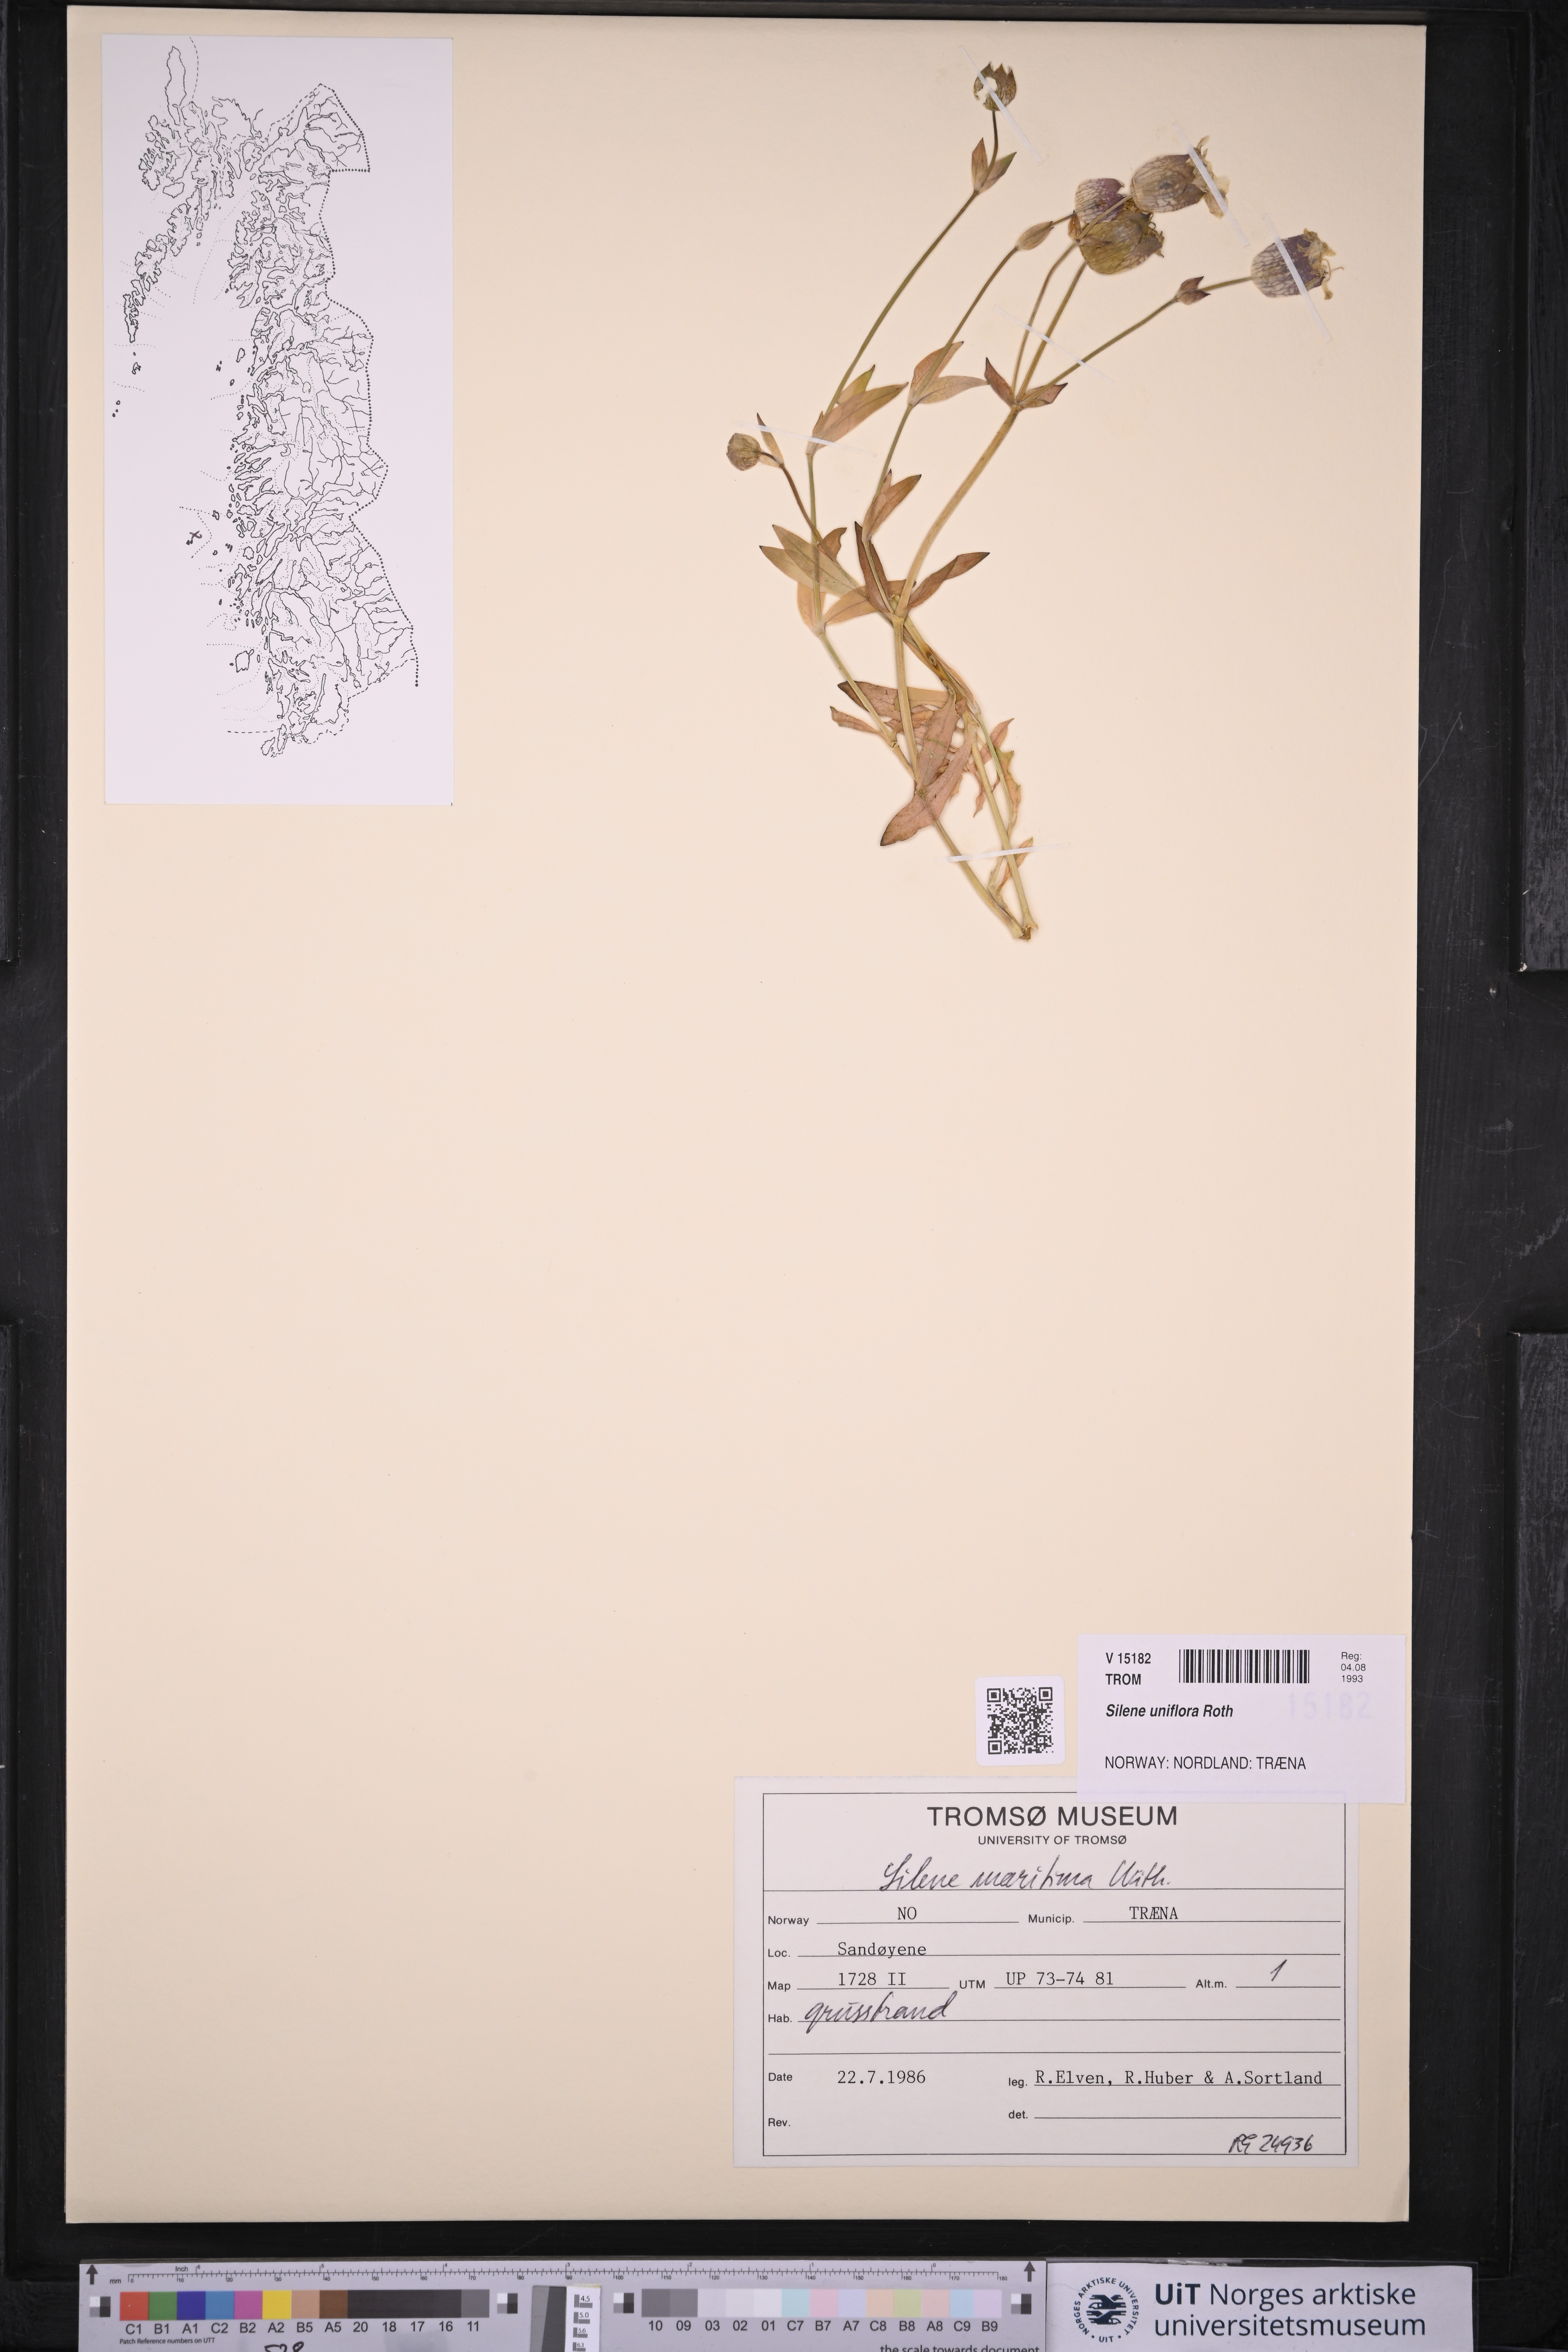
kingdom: Plantae
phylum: Tracheophyta
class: Magnoliopsida
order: Caryophyllales
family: Caryophyllaceae
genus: Silene
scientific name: Silene uniflora
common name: Sea campion
